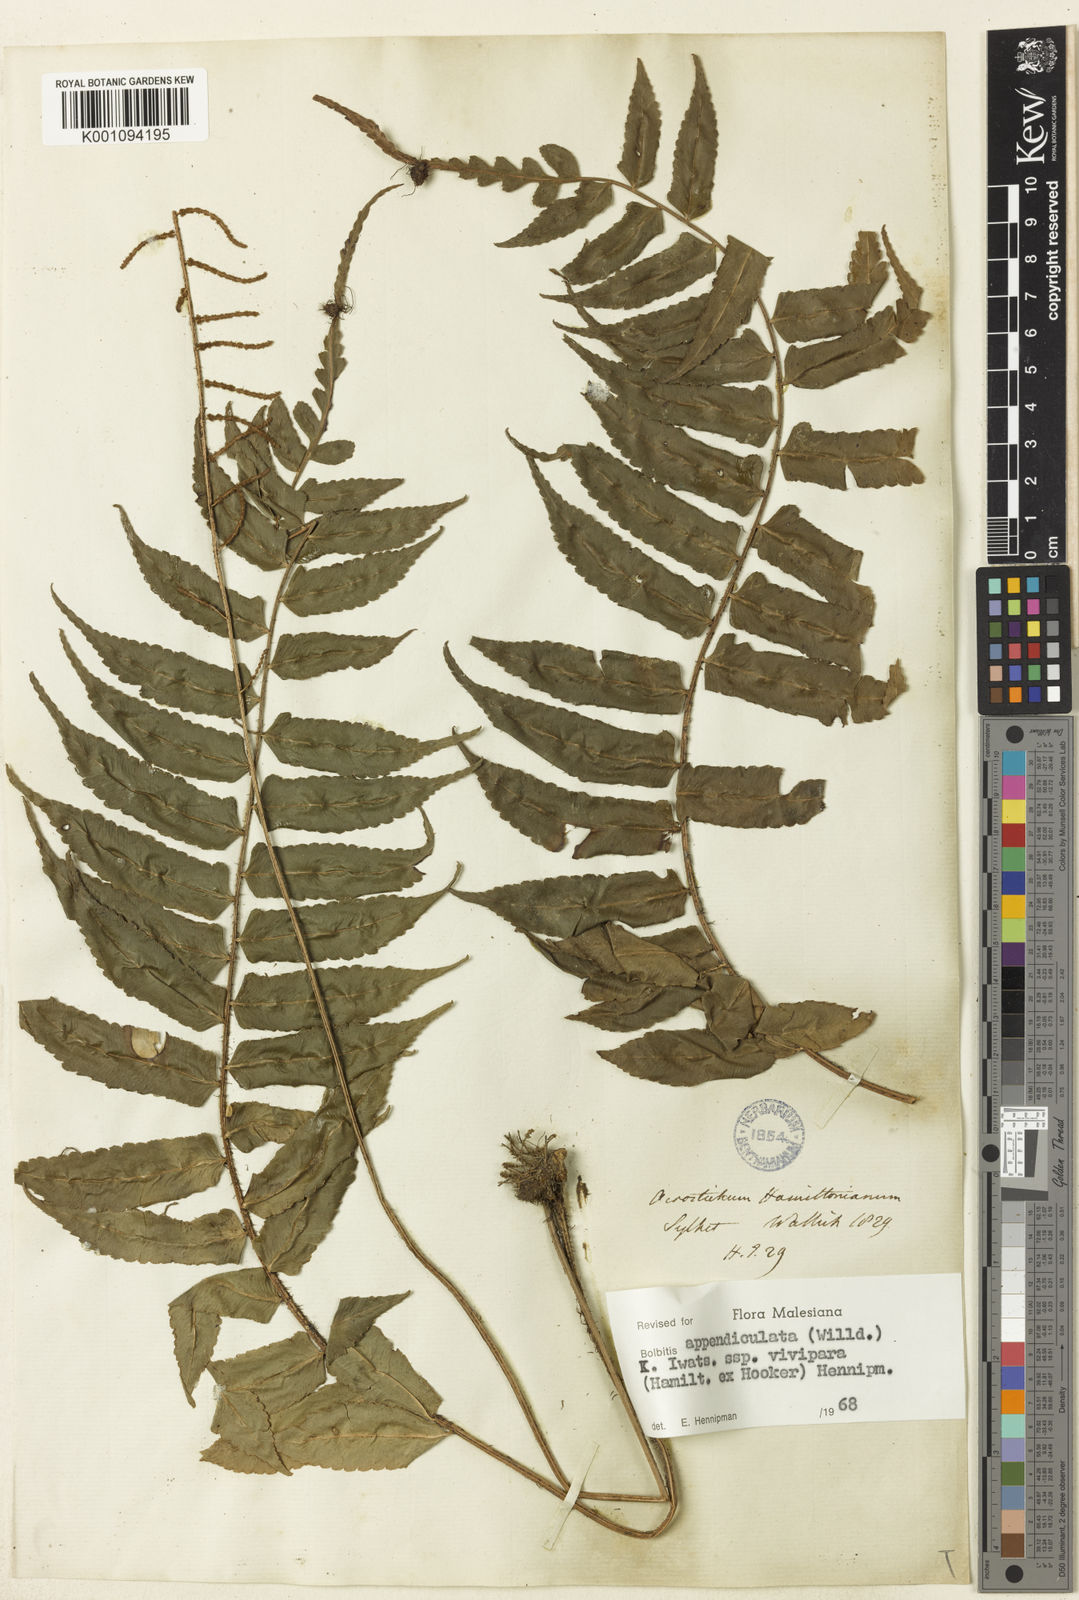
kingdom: Plantae
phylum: Tracheophyta
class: Polypodiopsida
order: Polypodiales
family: Dryopteridaceae
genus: Bolbitis
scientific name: Bolbitis nodiflora
